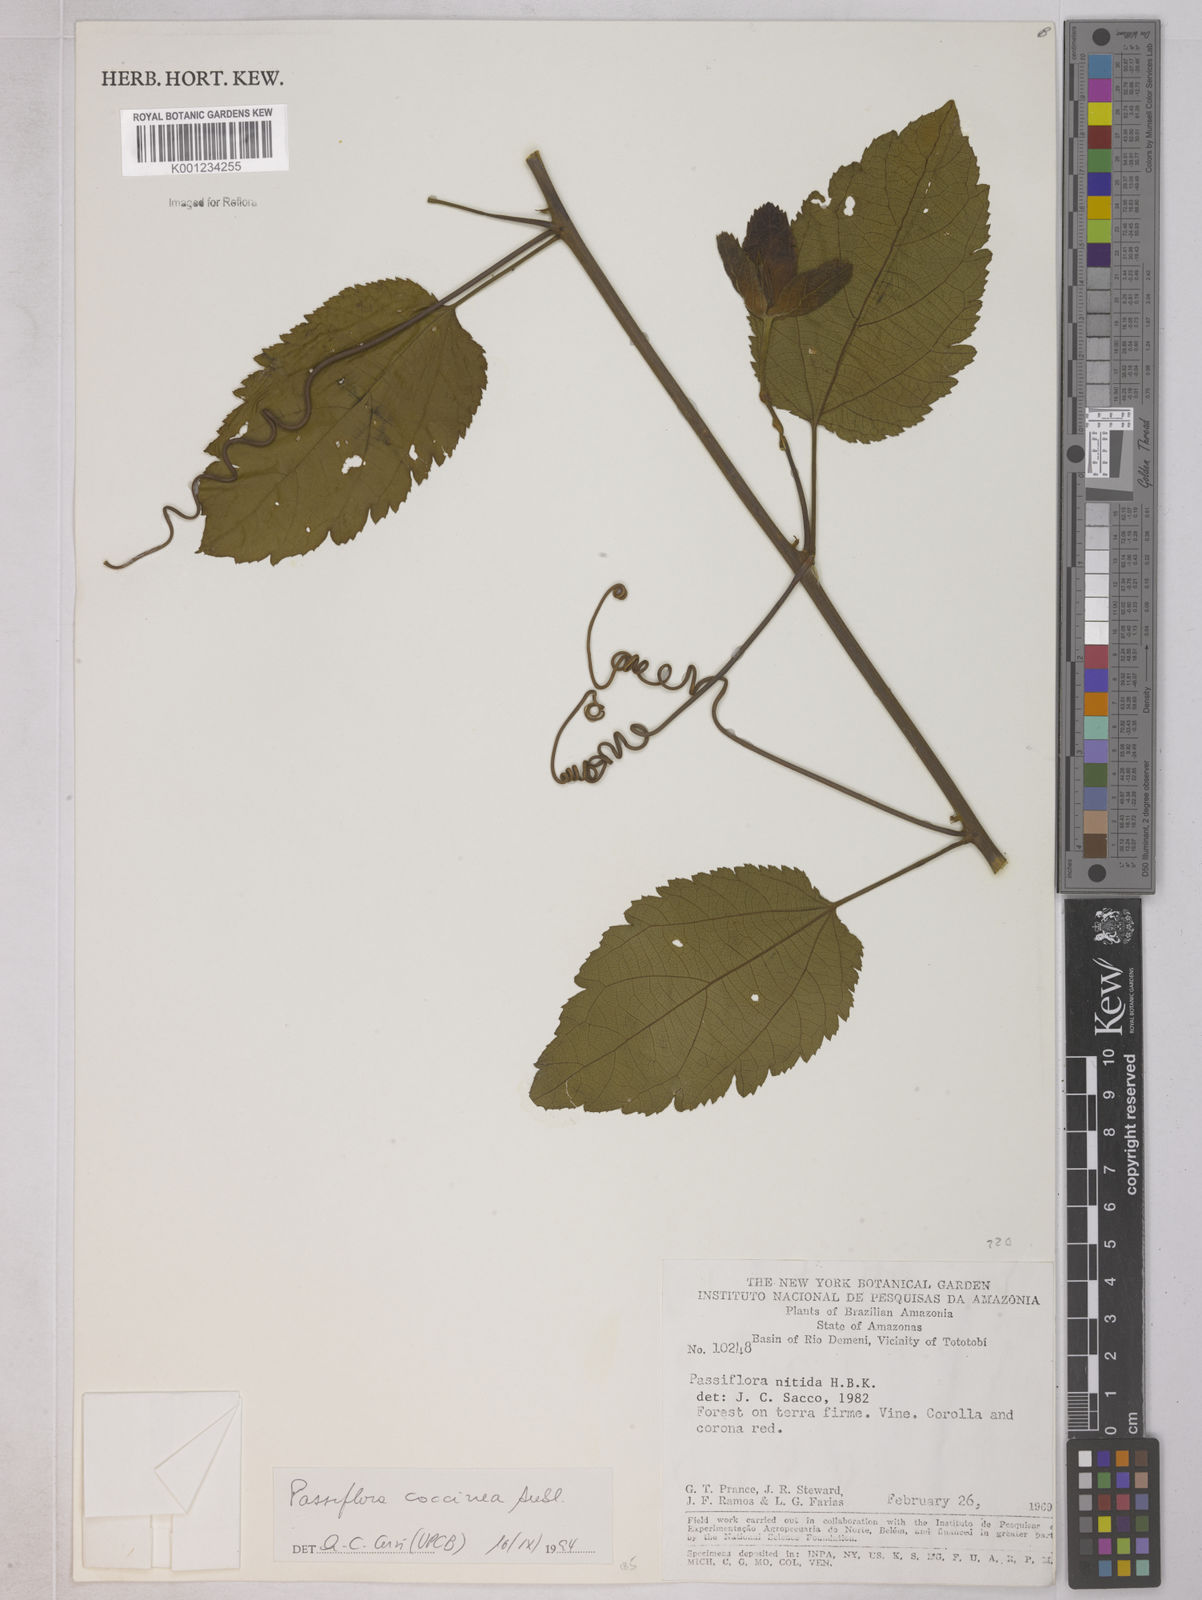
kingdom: Plantae
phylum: Tracheophyta
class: Magnoliopsida
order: Malpighiales
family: Passifloraceae
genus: Passiflora
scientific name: Passiflora coccinea
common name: Scarlet passionflower
